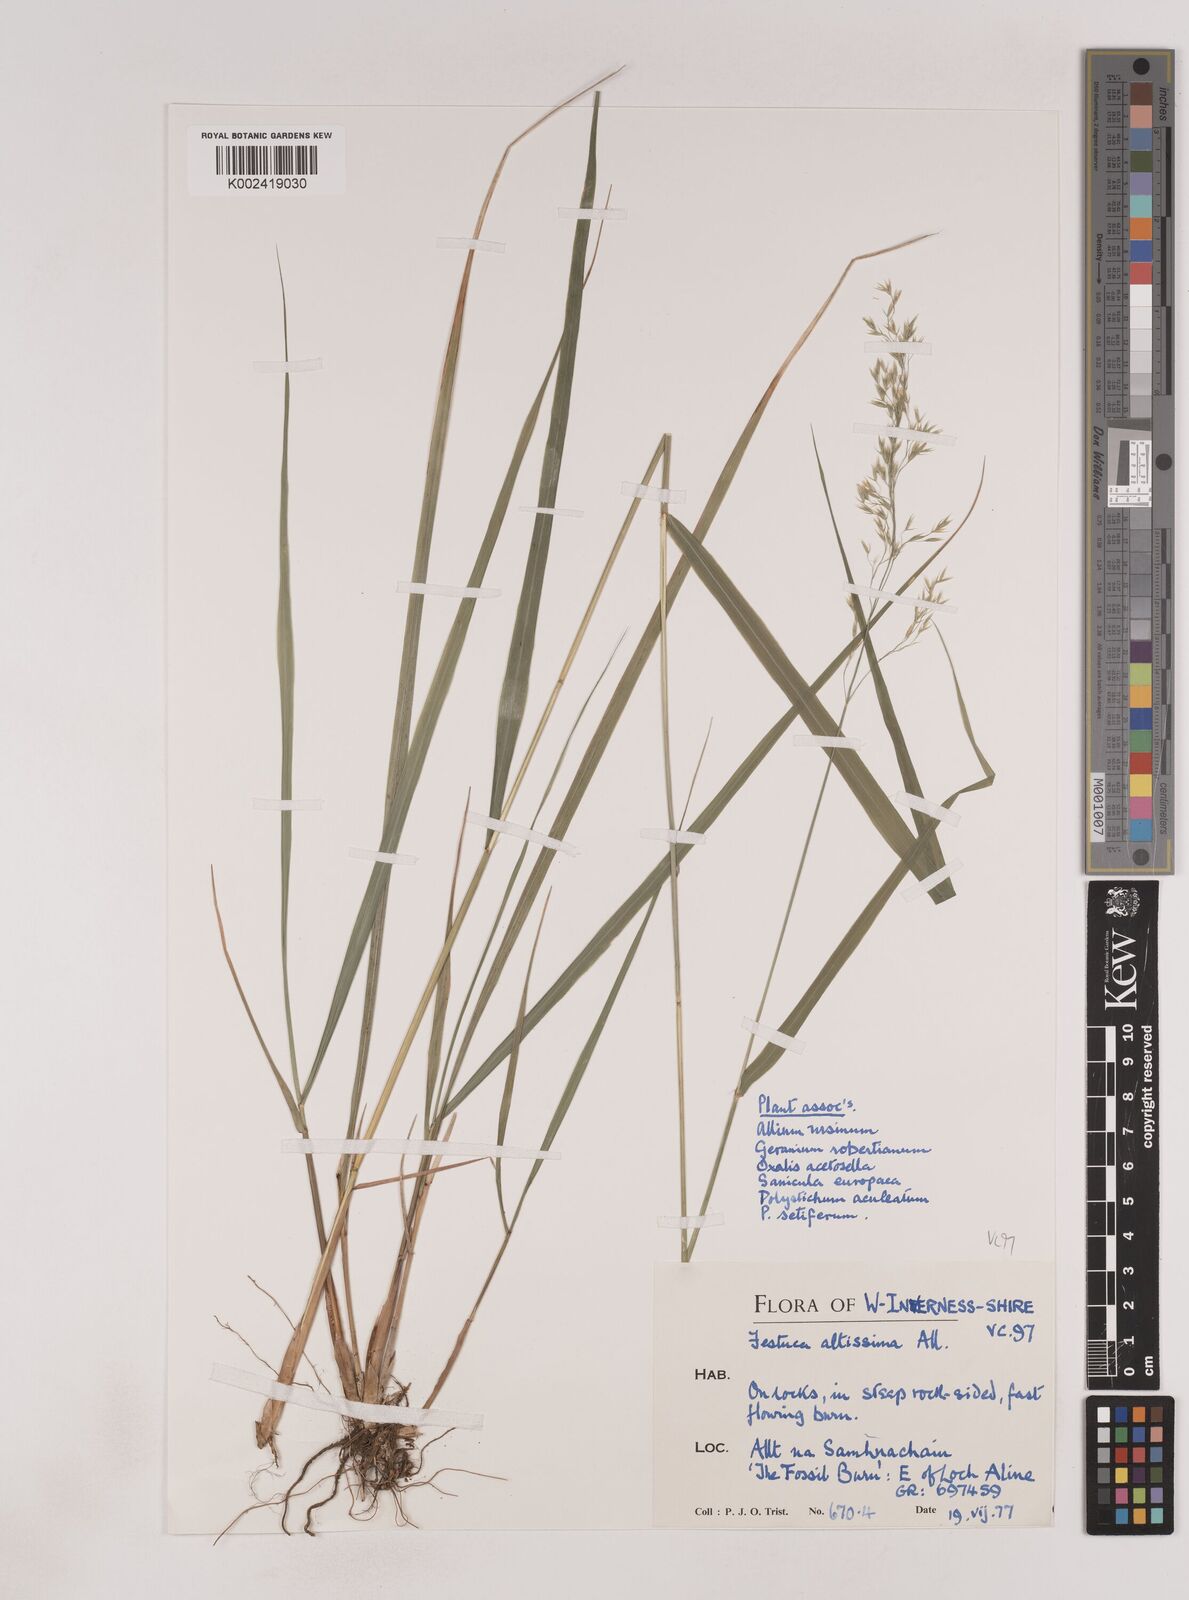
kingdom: Plantae
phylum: Tracheophyta
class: Liliopsida
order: Poales
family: Poaceae
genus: Festuca
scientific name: Festuca drymeja
